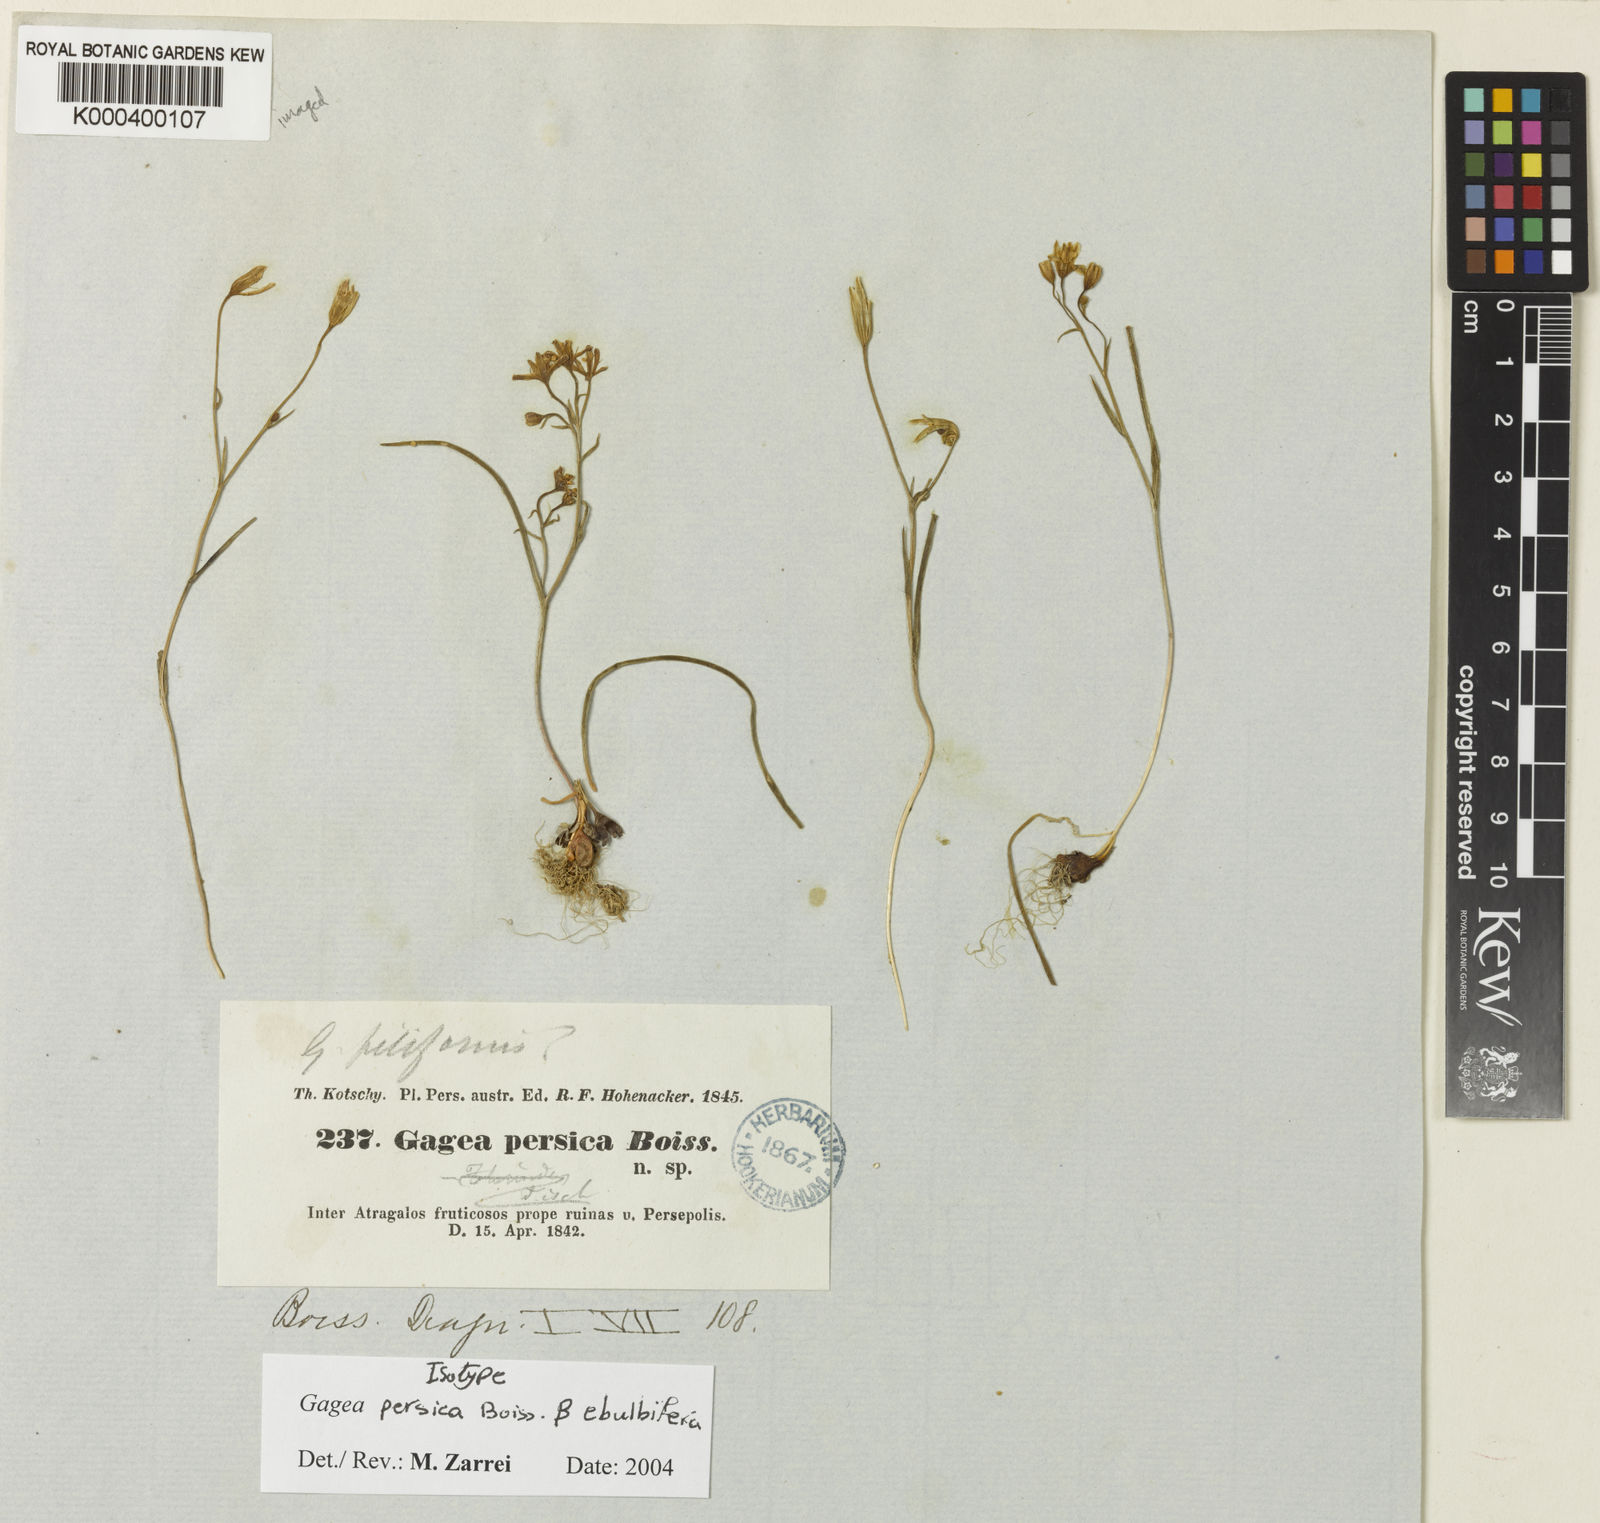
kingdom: Plantae
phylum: Tracheophyta
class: Liliopsida
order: Liliales
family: Liliaceae
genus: Gagea
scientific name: Gagea gageoides
